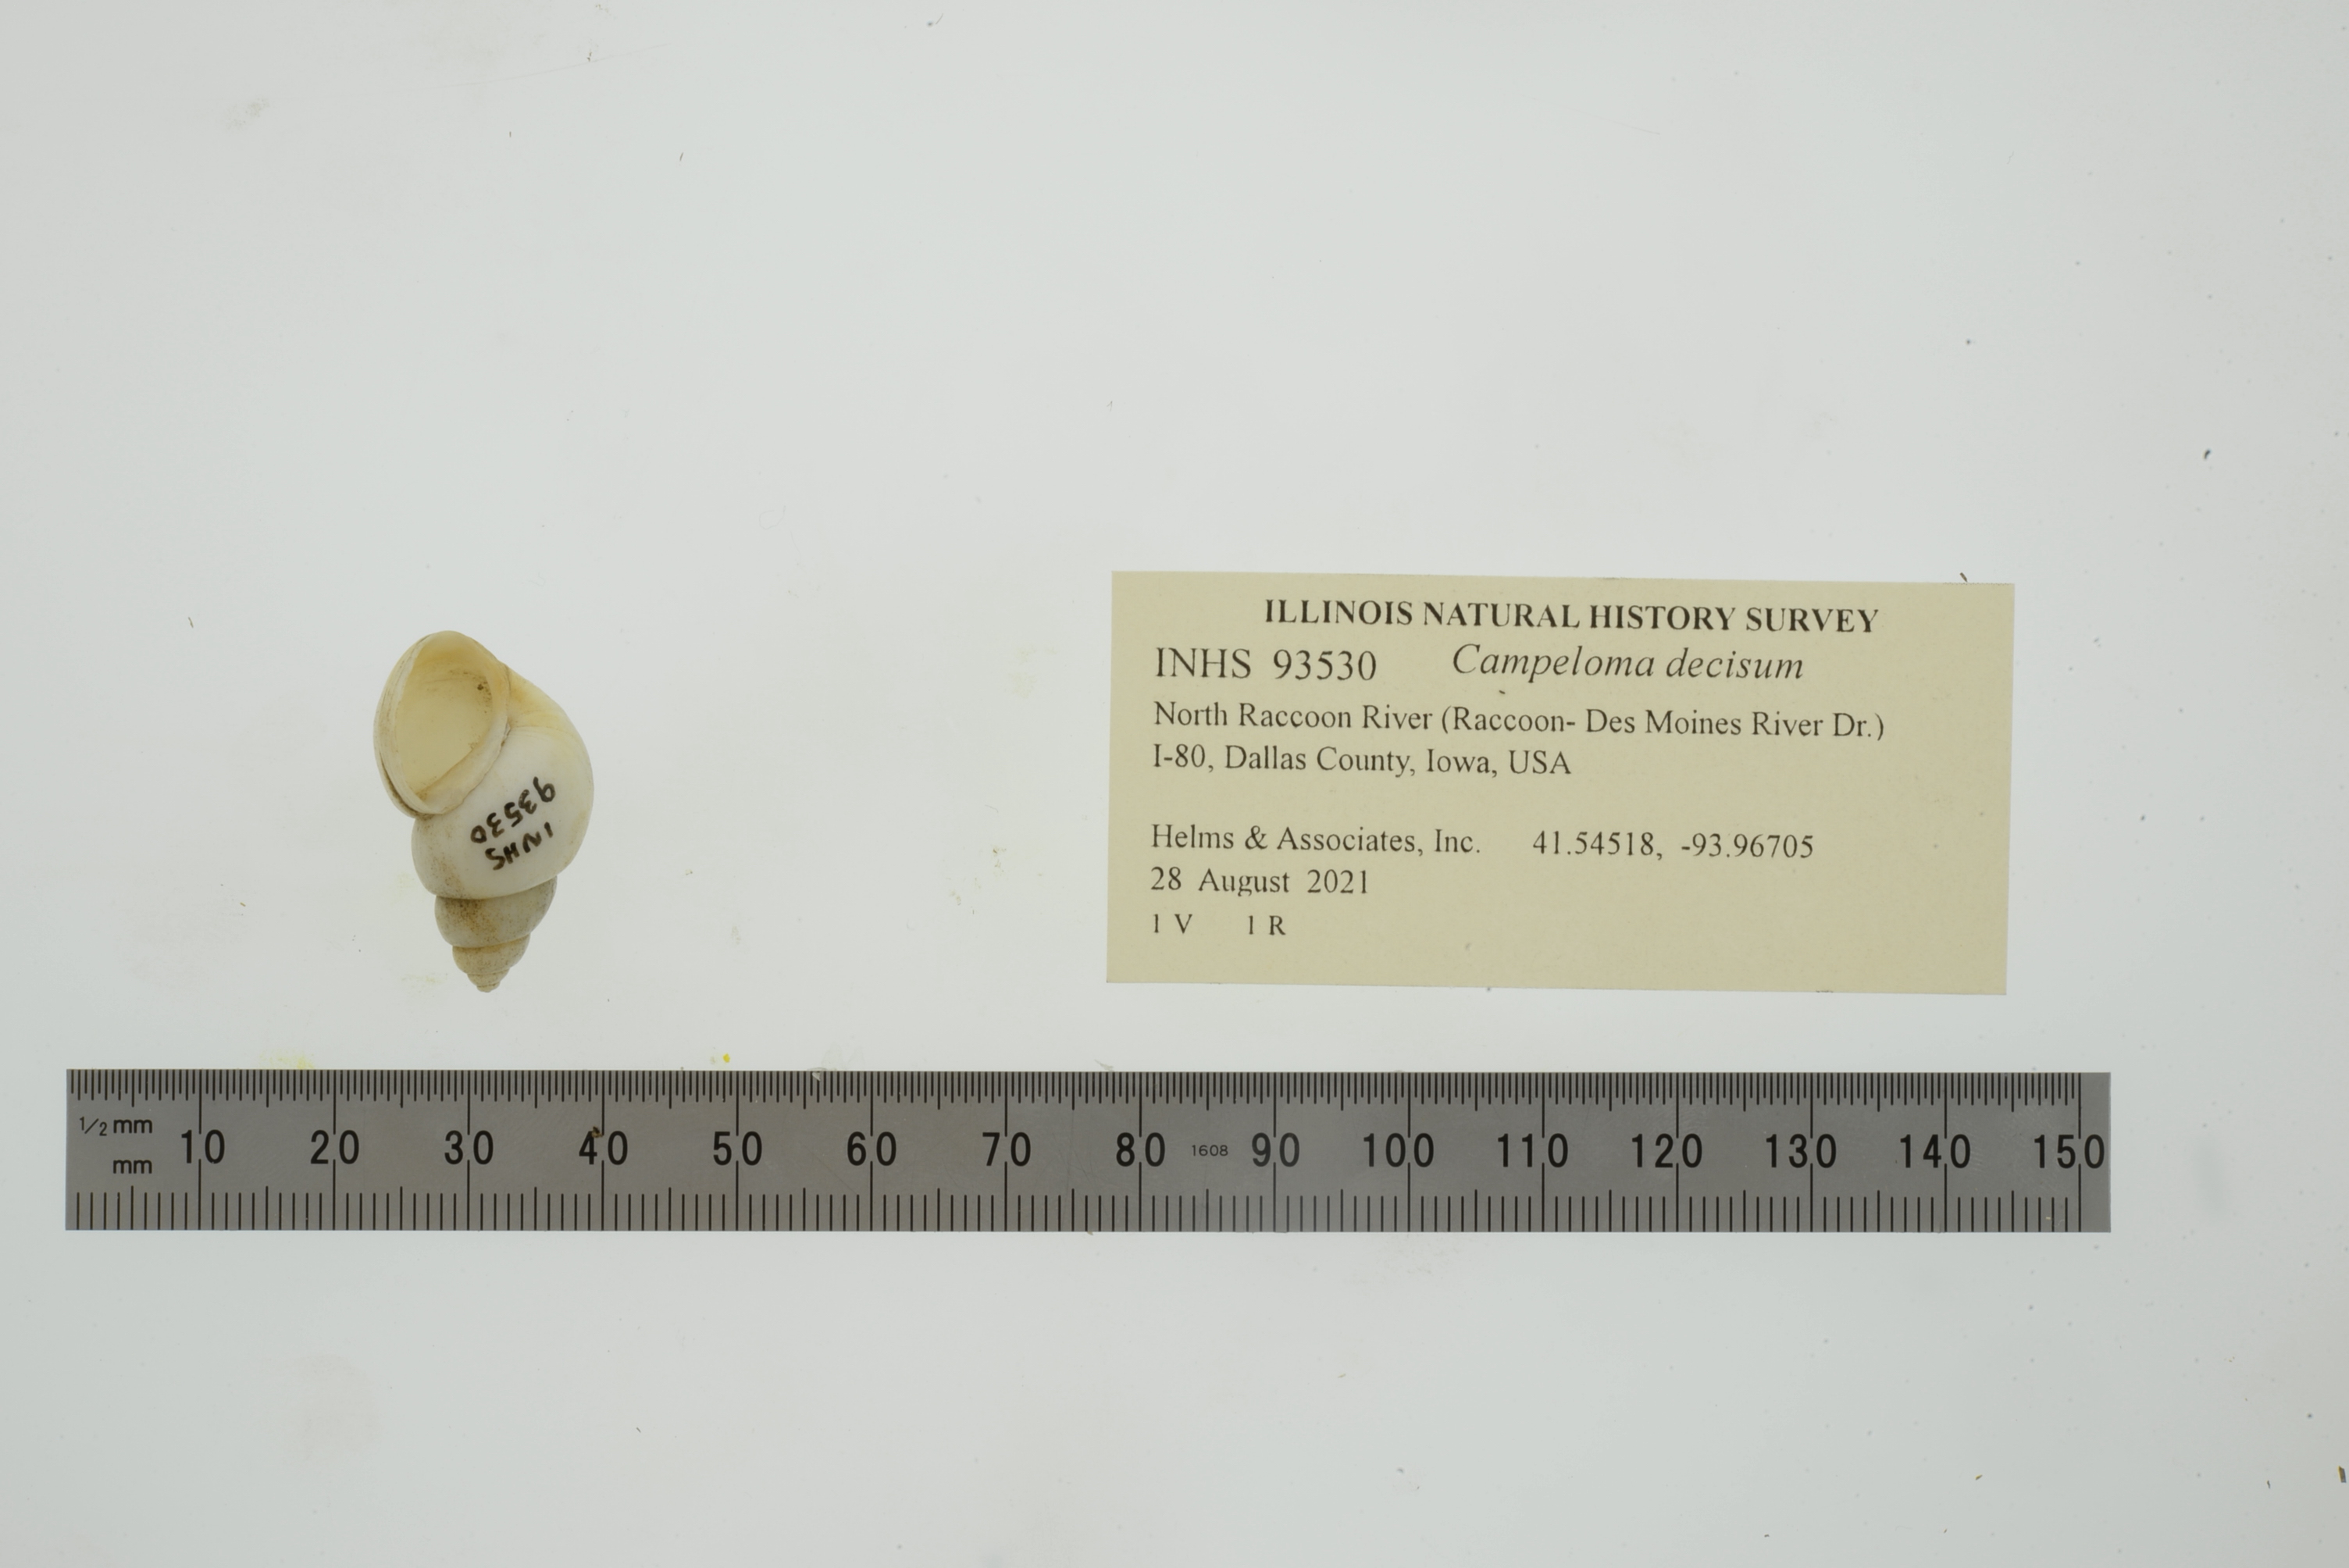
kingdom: Animalia
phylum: Mollusca
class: Gastropoda
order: Architaenioglossa
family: Viviparidae
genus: Campeloma
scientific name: Campeloma decisum
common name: Pointed campeloma
